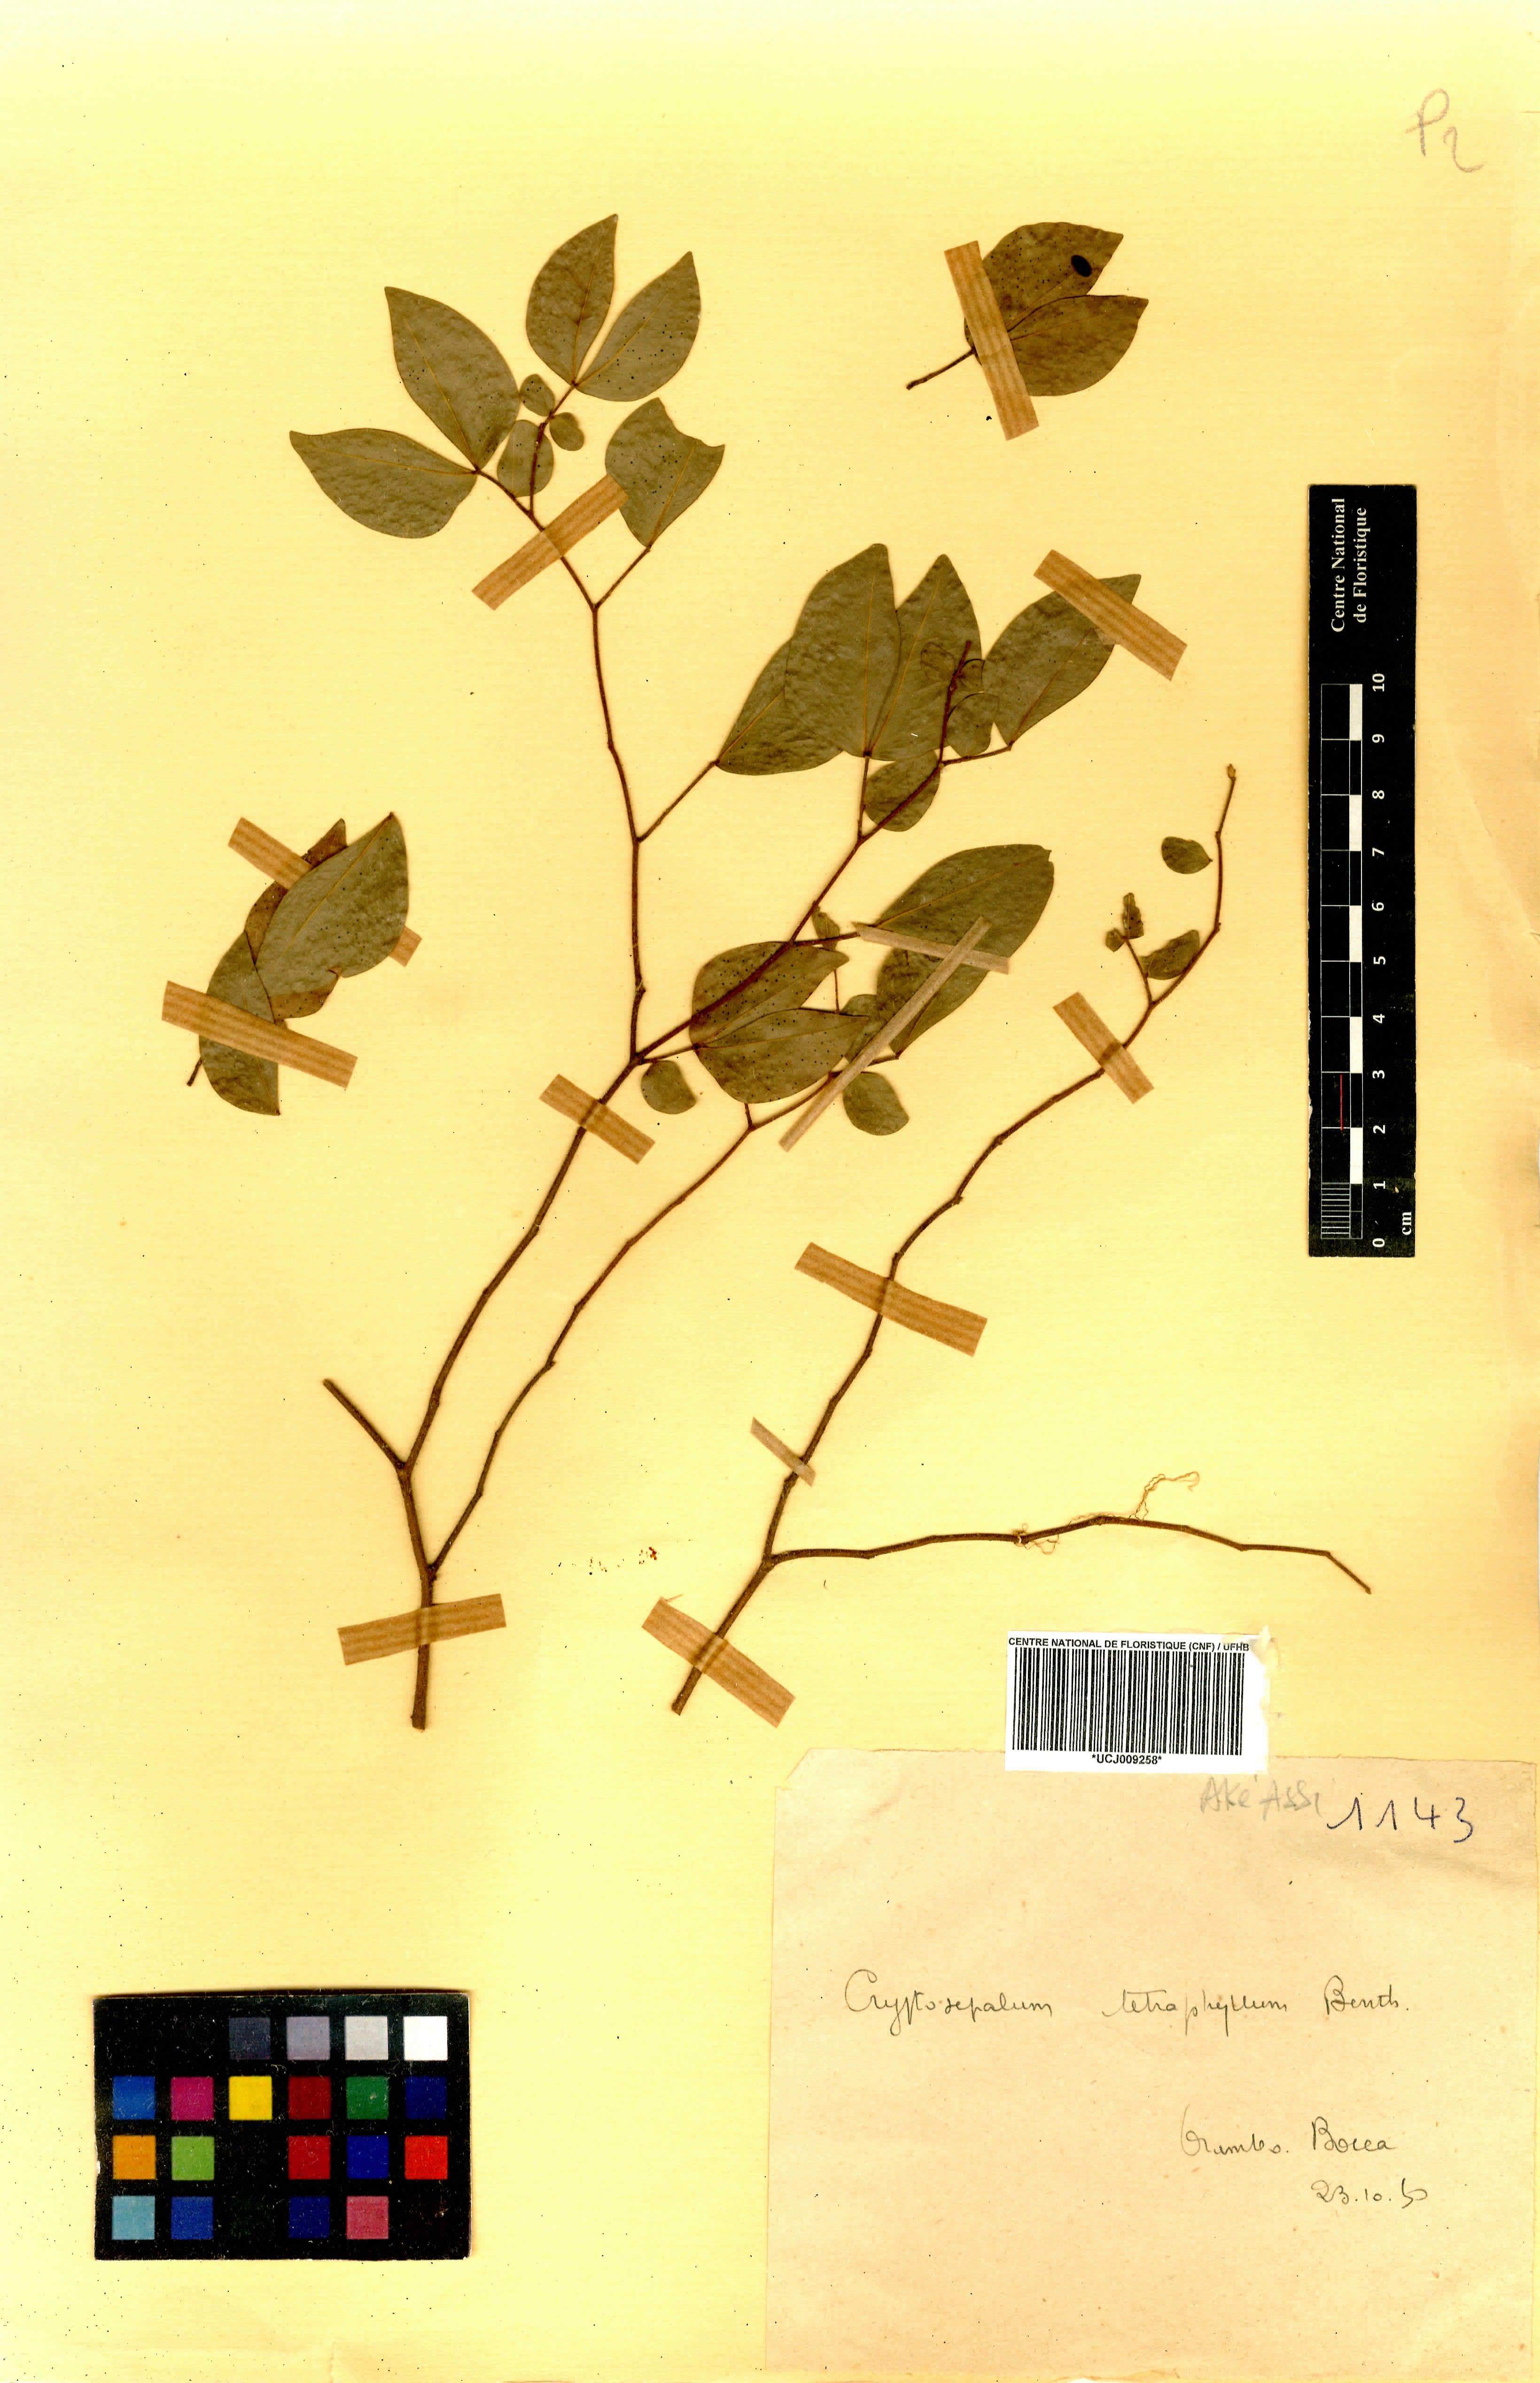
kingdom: Plantae
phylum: Tracheophyta
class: Magnoliopsida
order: Fabales
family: Fabaceae
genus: Cryptosepalum
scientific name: Cryptosepalum tetraphyllum
